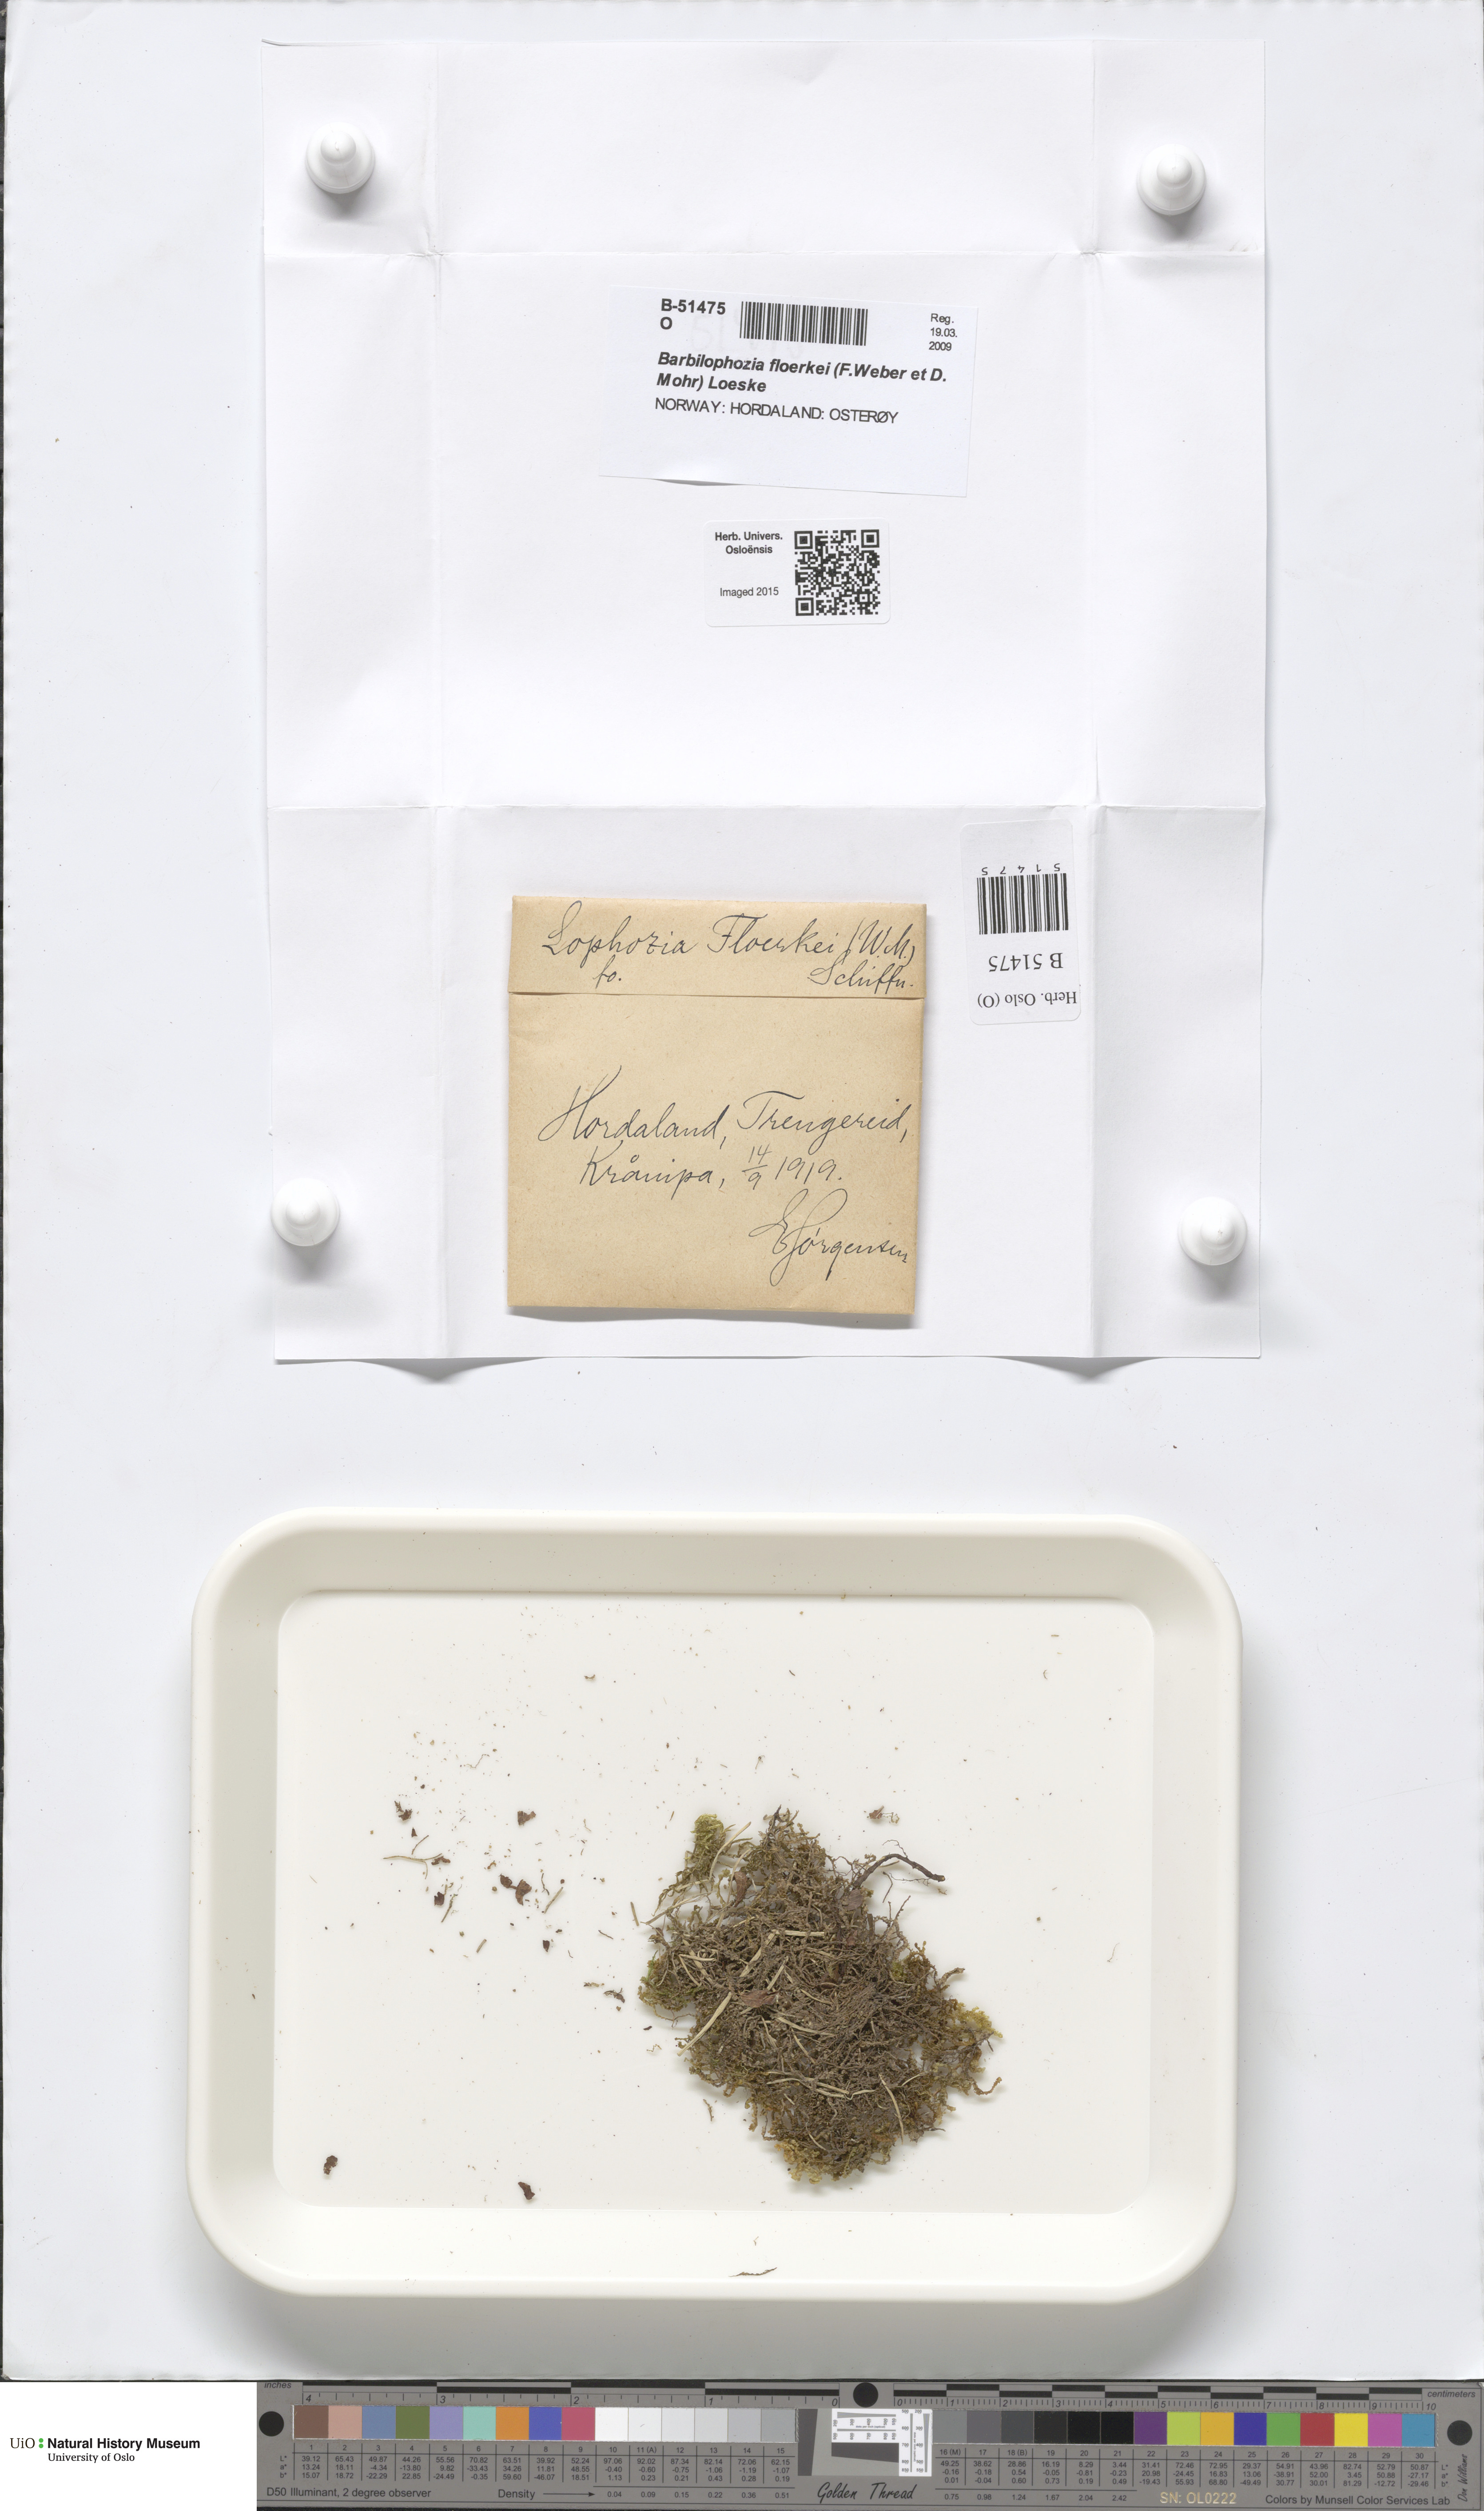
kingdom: Plantae
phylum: Marchantiophyta
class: Jungermanniopsida
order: Jungermanniales
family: Anastrophyllaceae
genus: Neoorthocaulis
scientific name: Neoorthocaulis floerkei
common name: Floerke's barbilophozia
